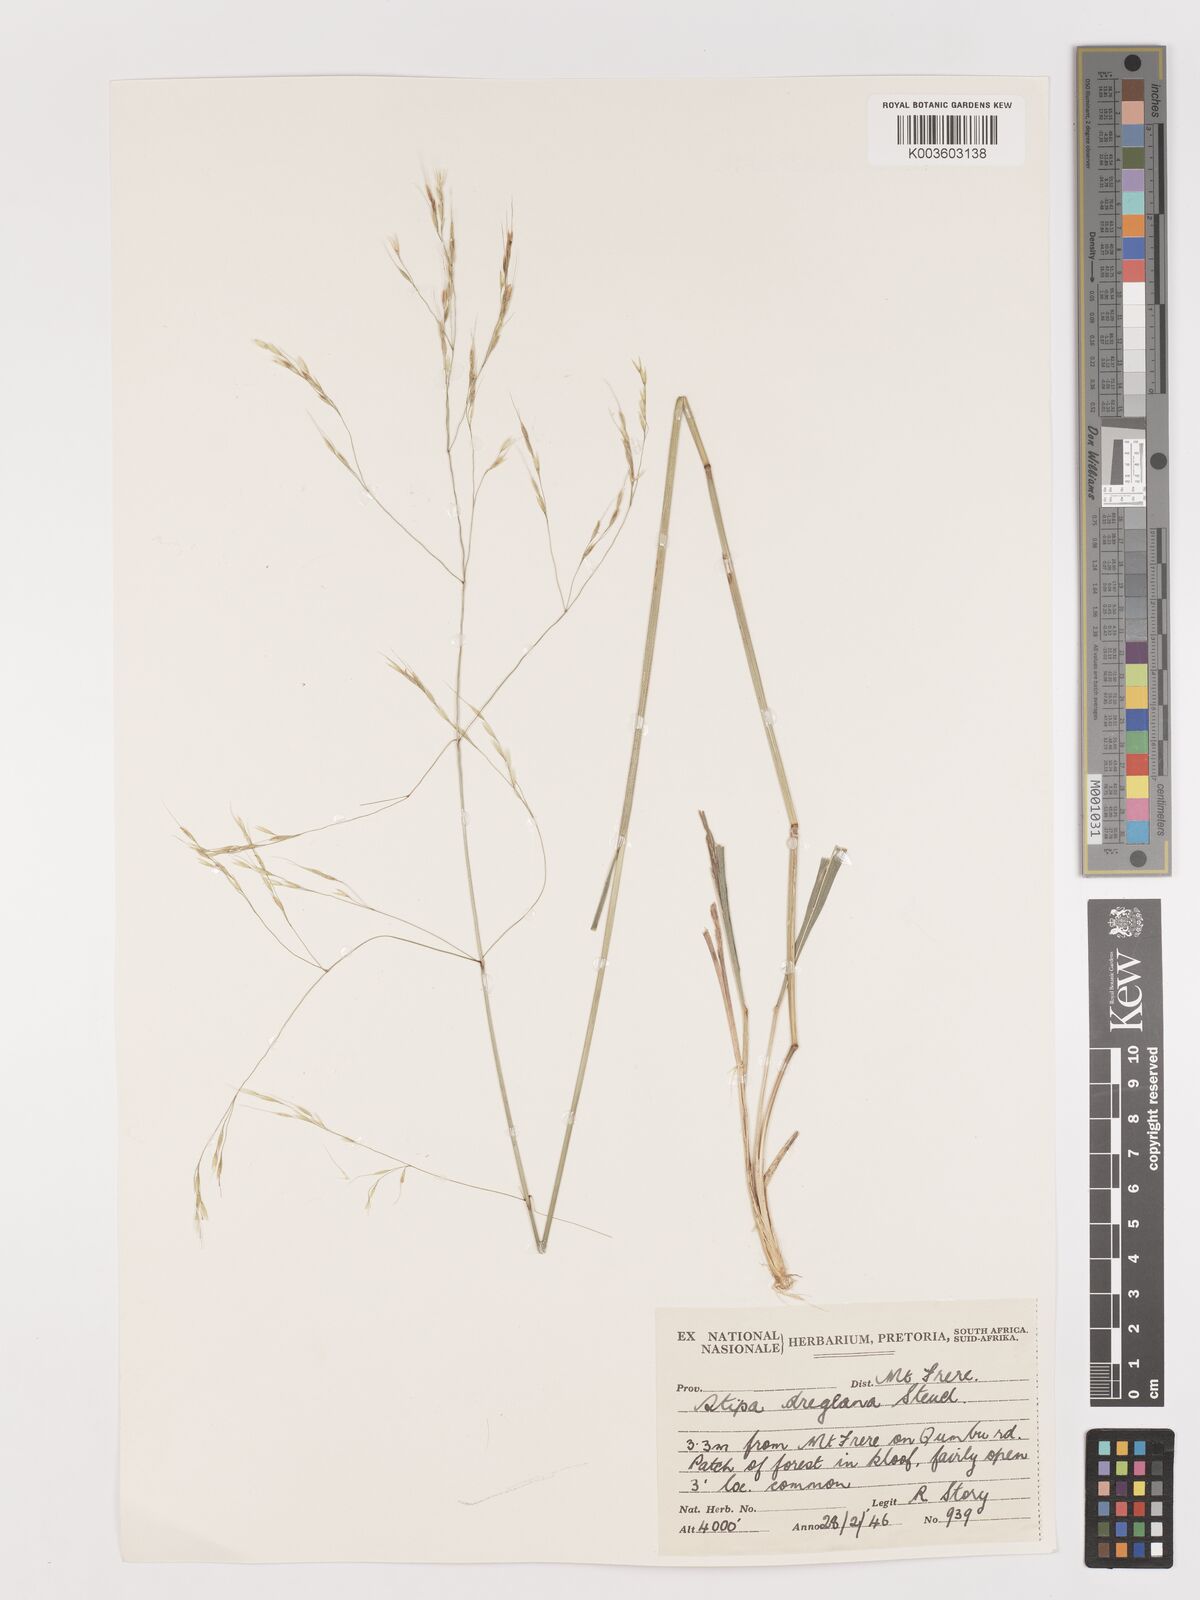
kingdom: Plantae
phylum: Tracheophyta
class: Liliopsida
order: Poales
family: Poaceae
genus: Stipa
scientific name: Stipa dregeana
